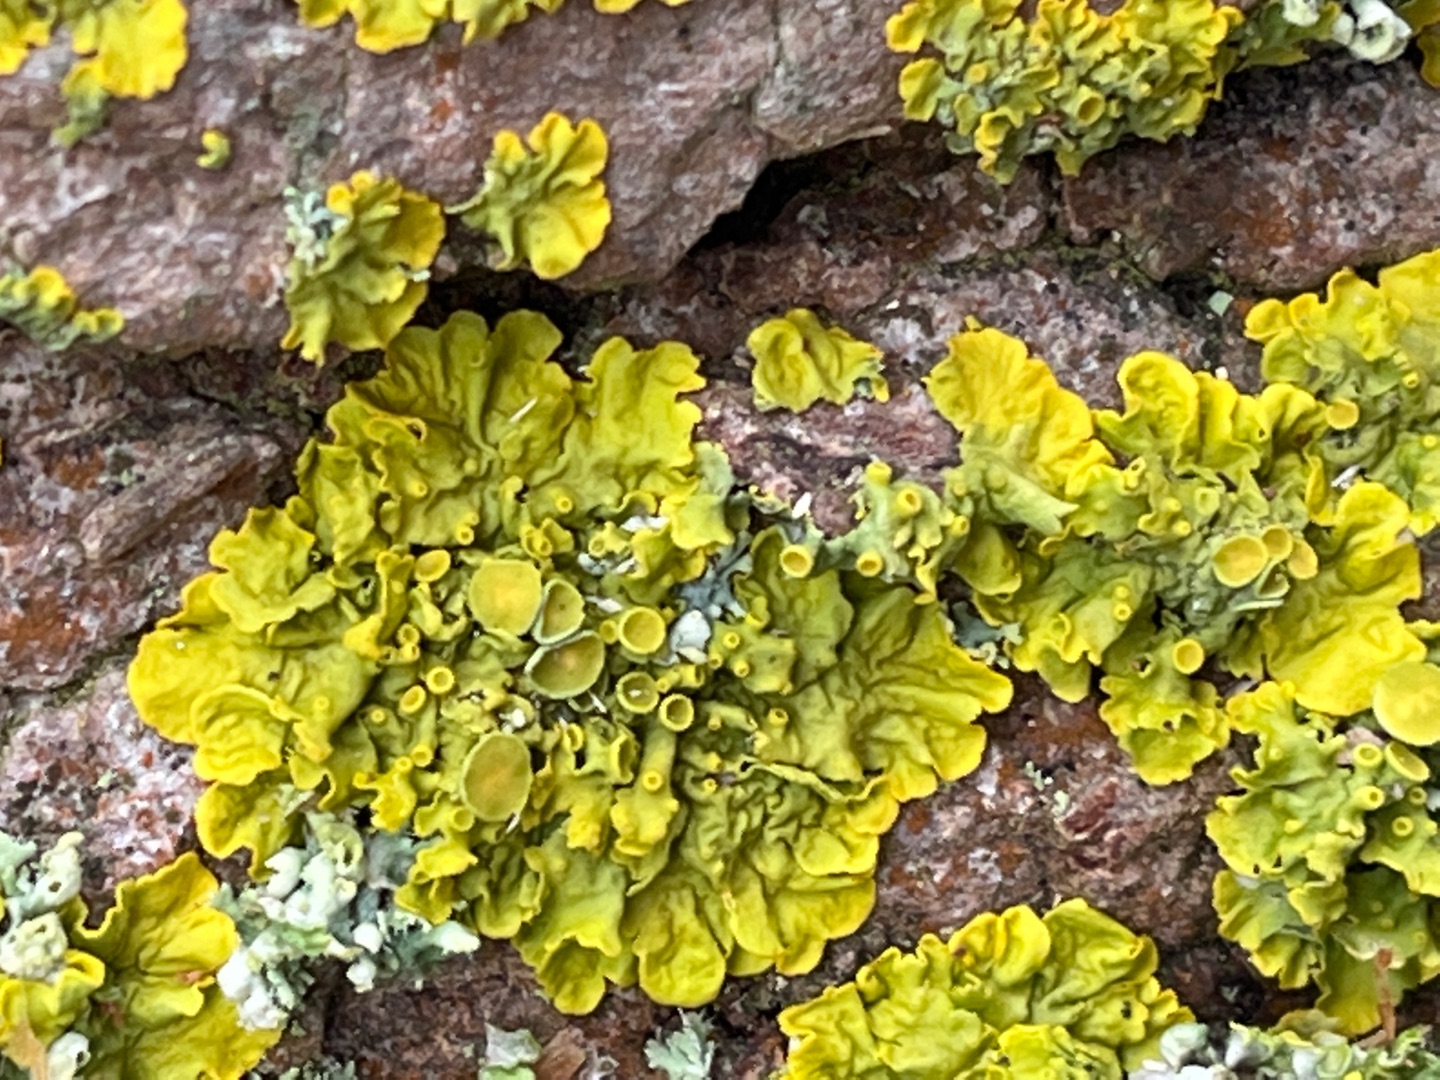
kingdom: Fungi
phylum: Ascomycota
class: Lecanoromycetes
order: Teloschistales
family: Teloschistaceae
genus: Xanthoria
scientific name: Xanthoria parietina
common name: Almindelig væggelav
